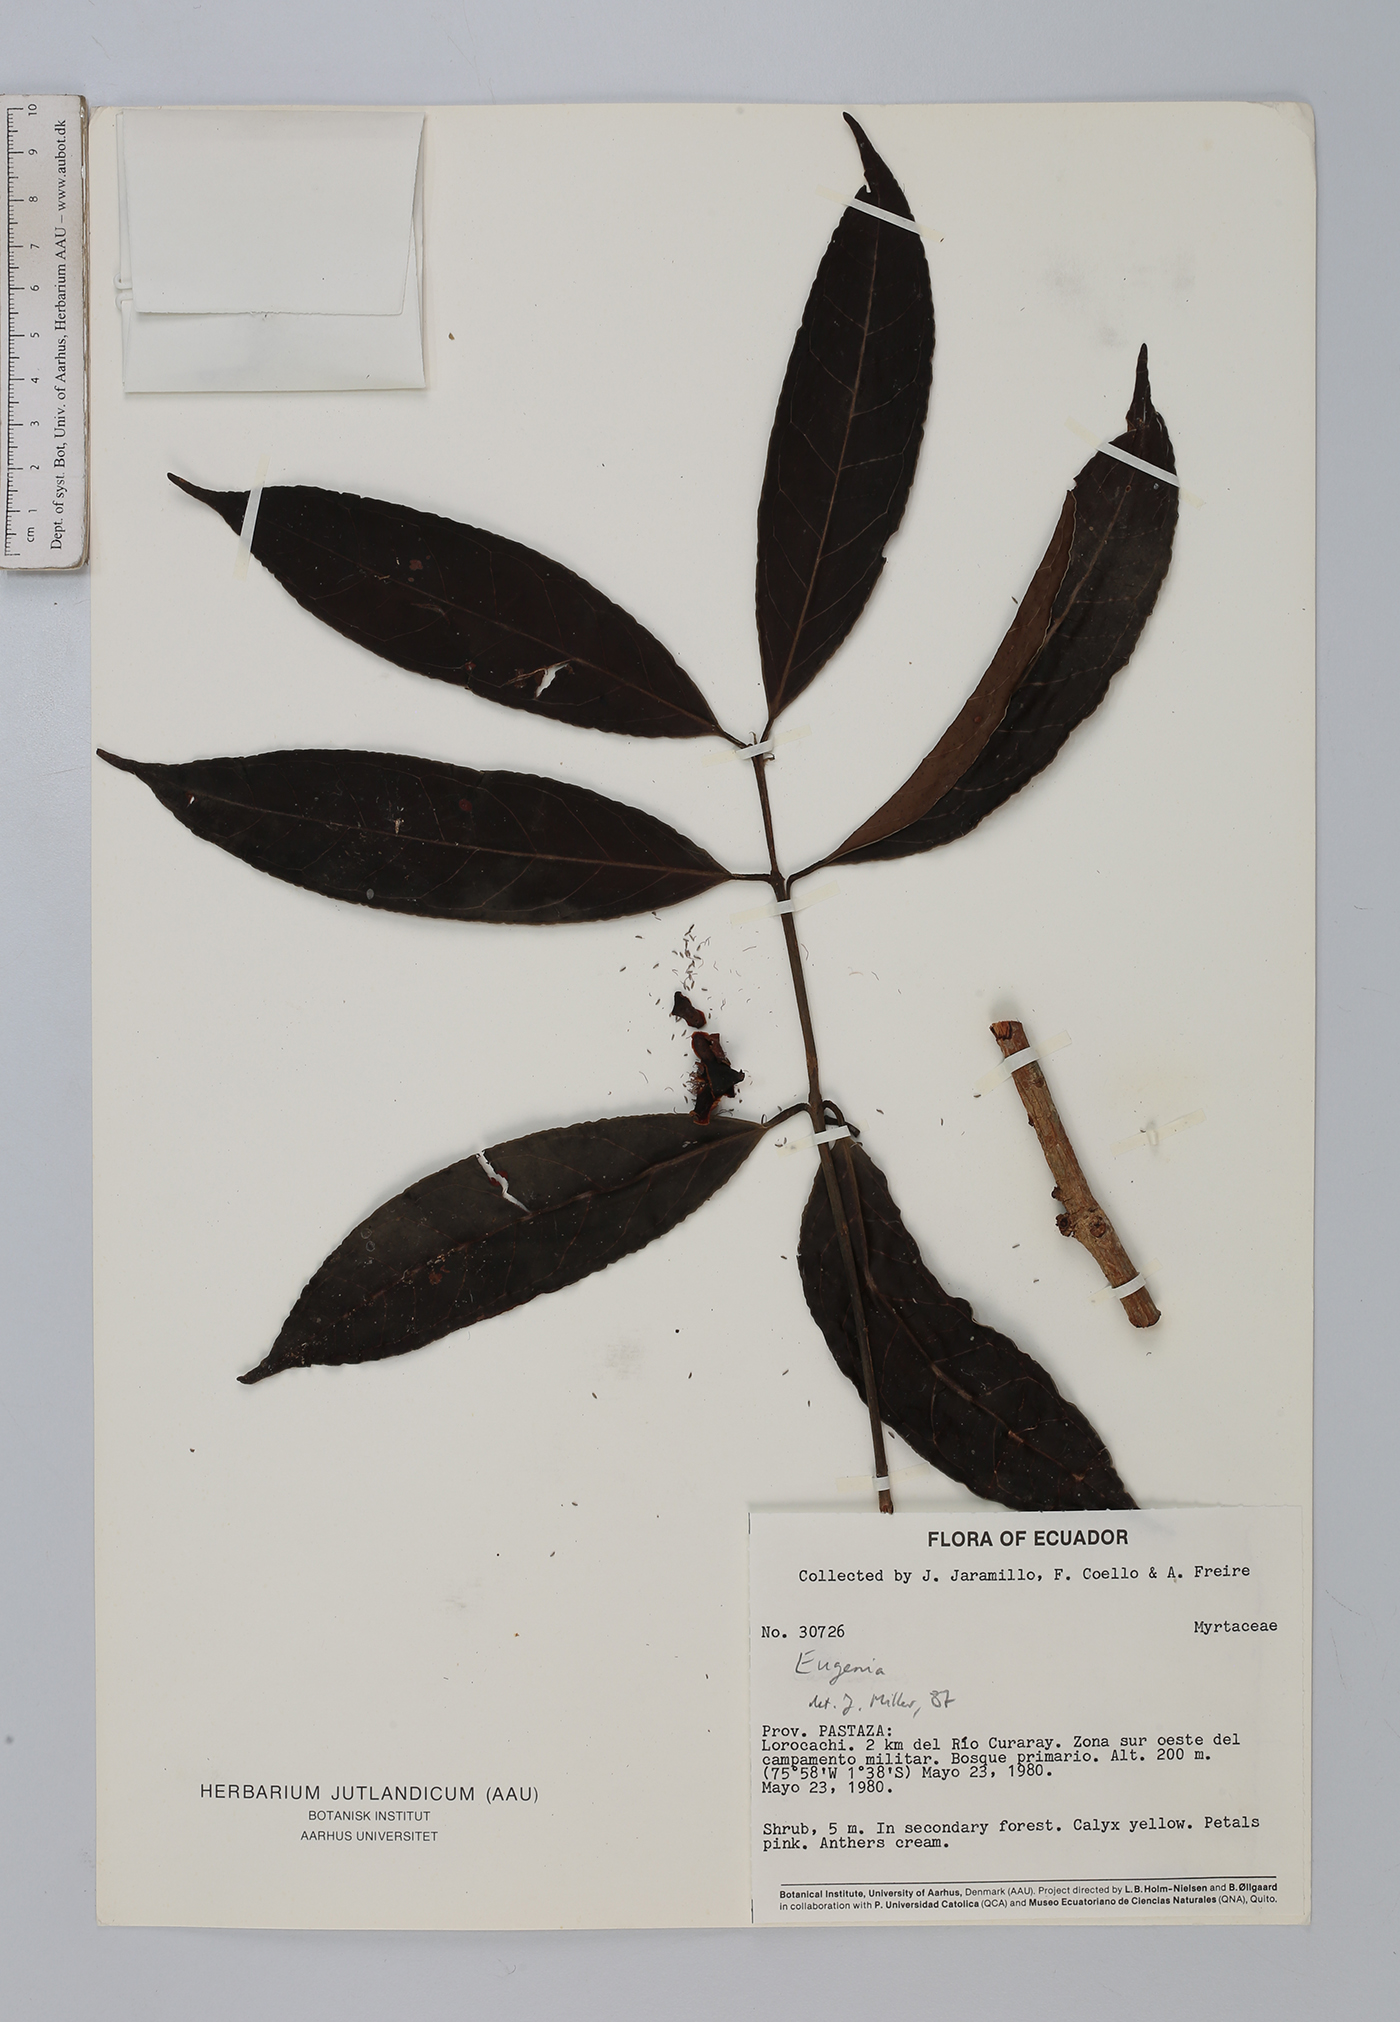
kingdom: Plantae
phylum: Tracheophyta
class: Magnoliopsida
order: Myrtales
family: Myrtaceae
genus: Eugenia
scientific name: Eugenia
